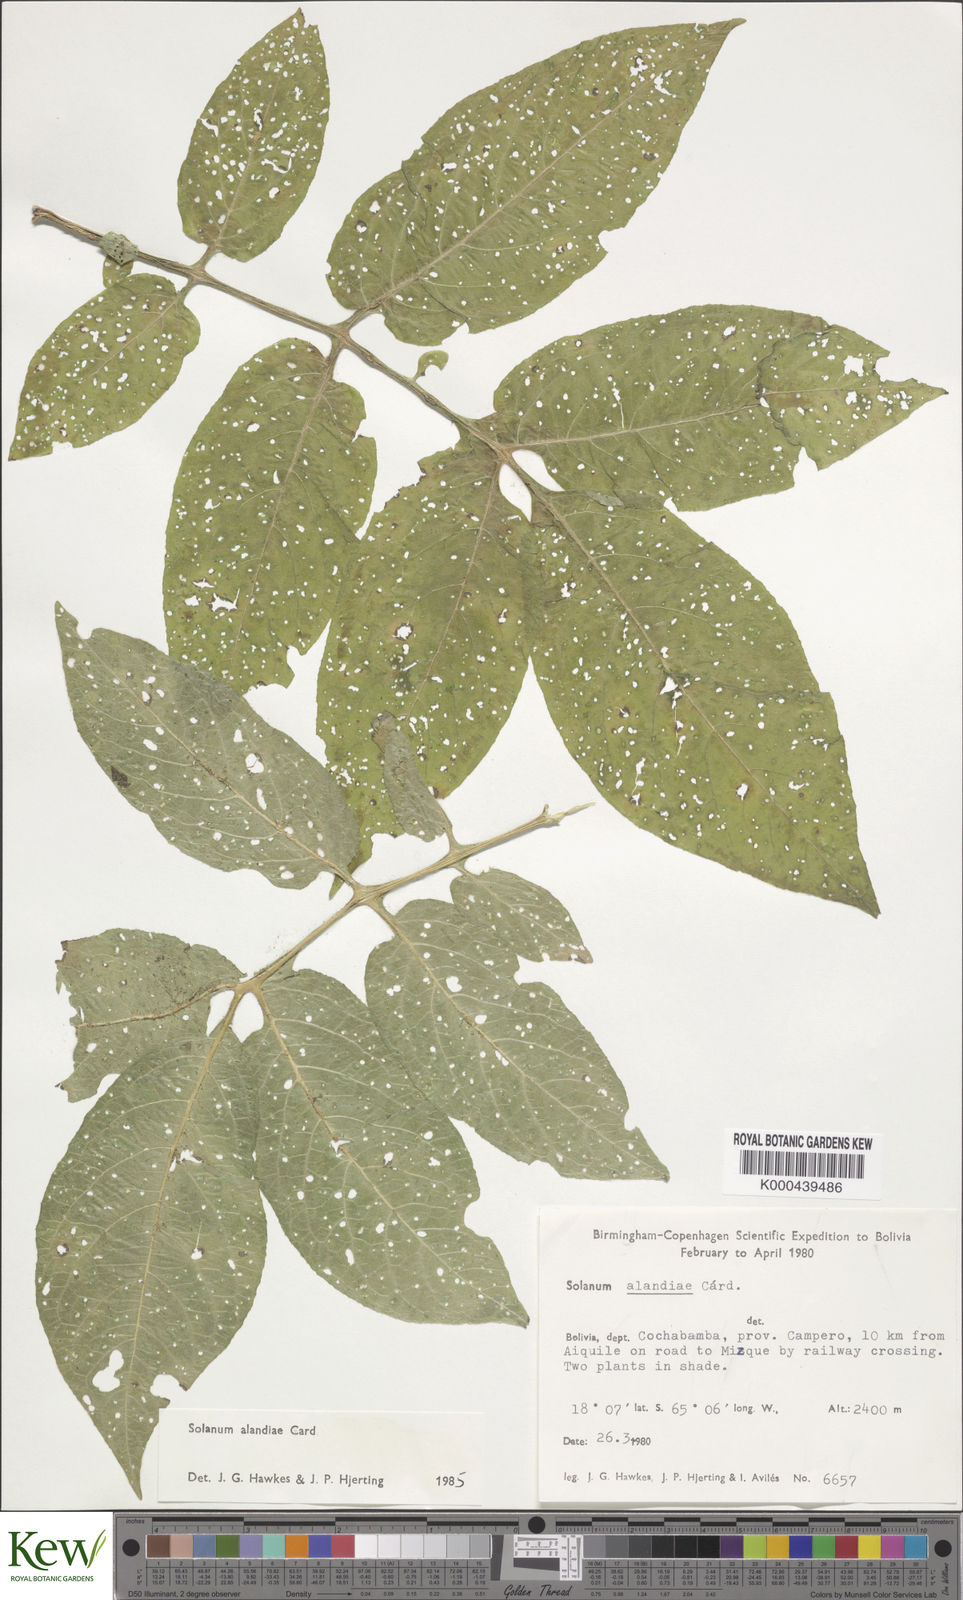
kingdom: Plantae
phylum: Tracheophyta
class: Magnoliopsida
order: Solanales
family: Solanaceae
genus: Solanum
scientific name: Solanum brevicaule
